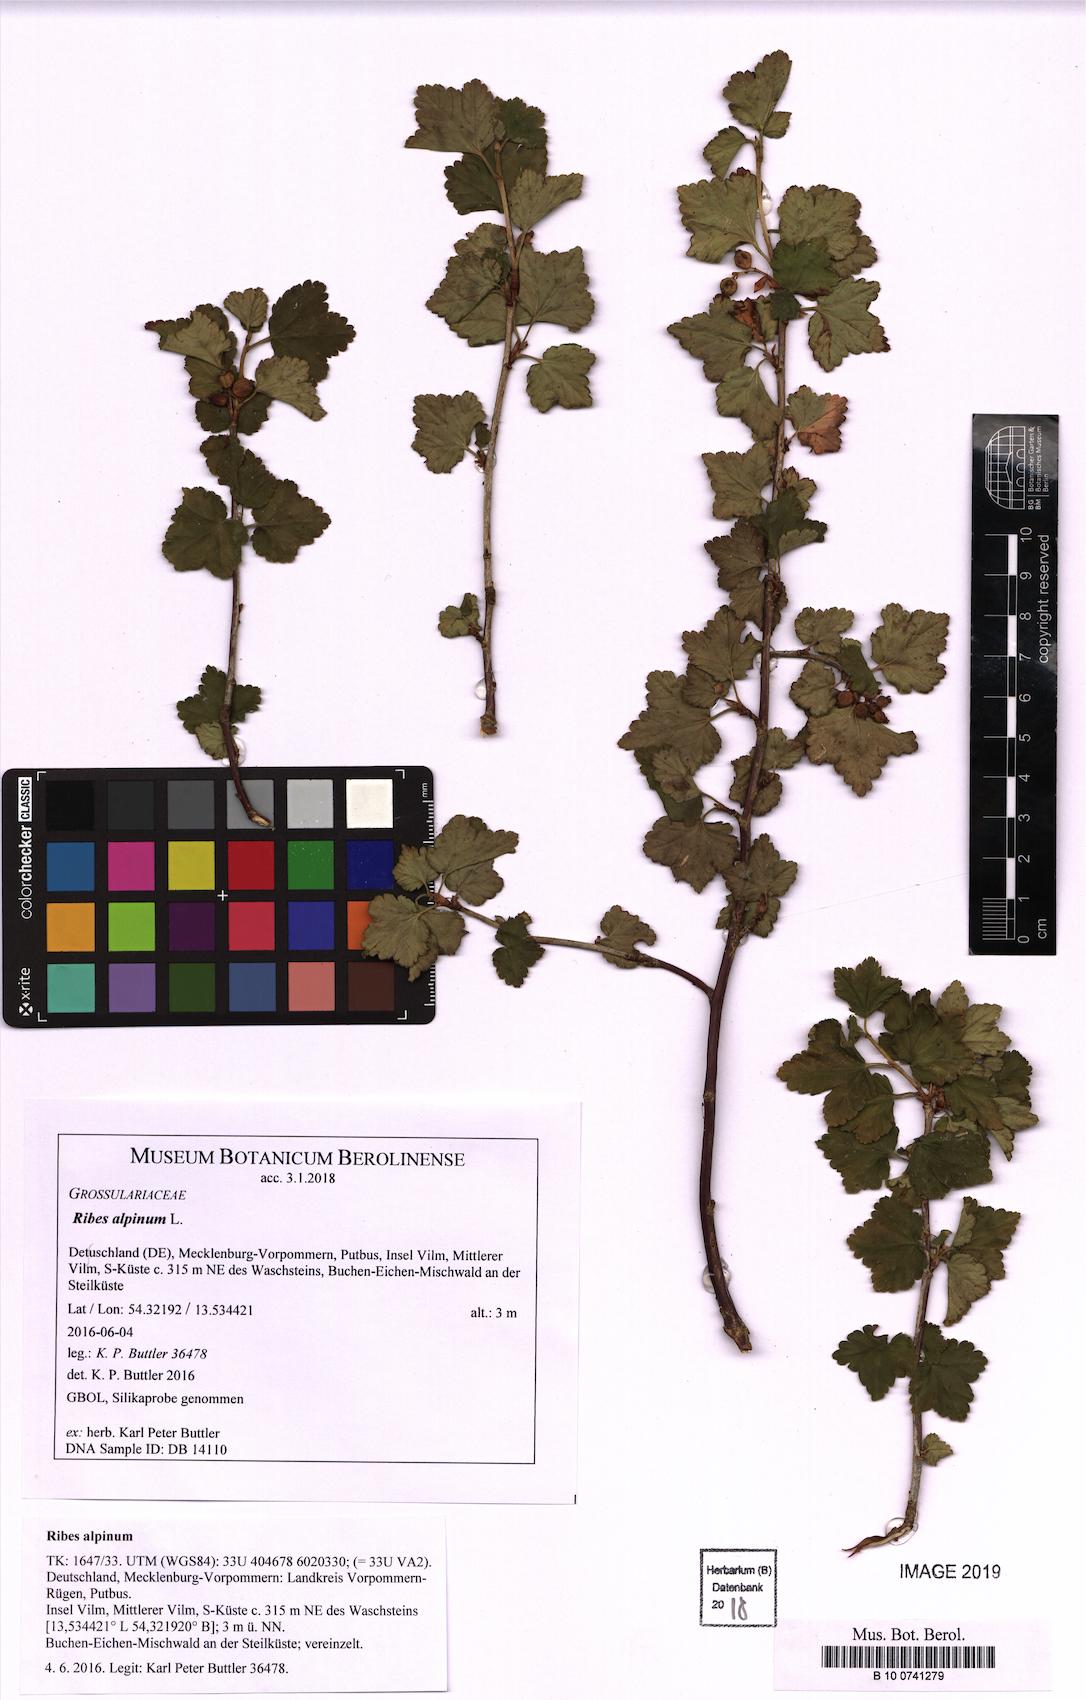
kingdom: Plantae
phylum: Tracheophyta
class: Magnoliopsida
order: Saxifragales
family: Grossulariaceae
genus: Ribes
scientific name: Ribes alpinum
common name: Alpine currant
